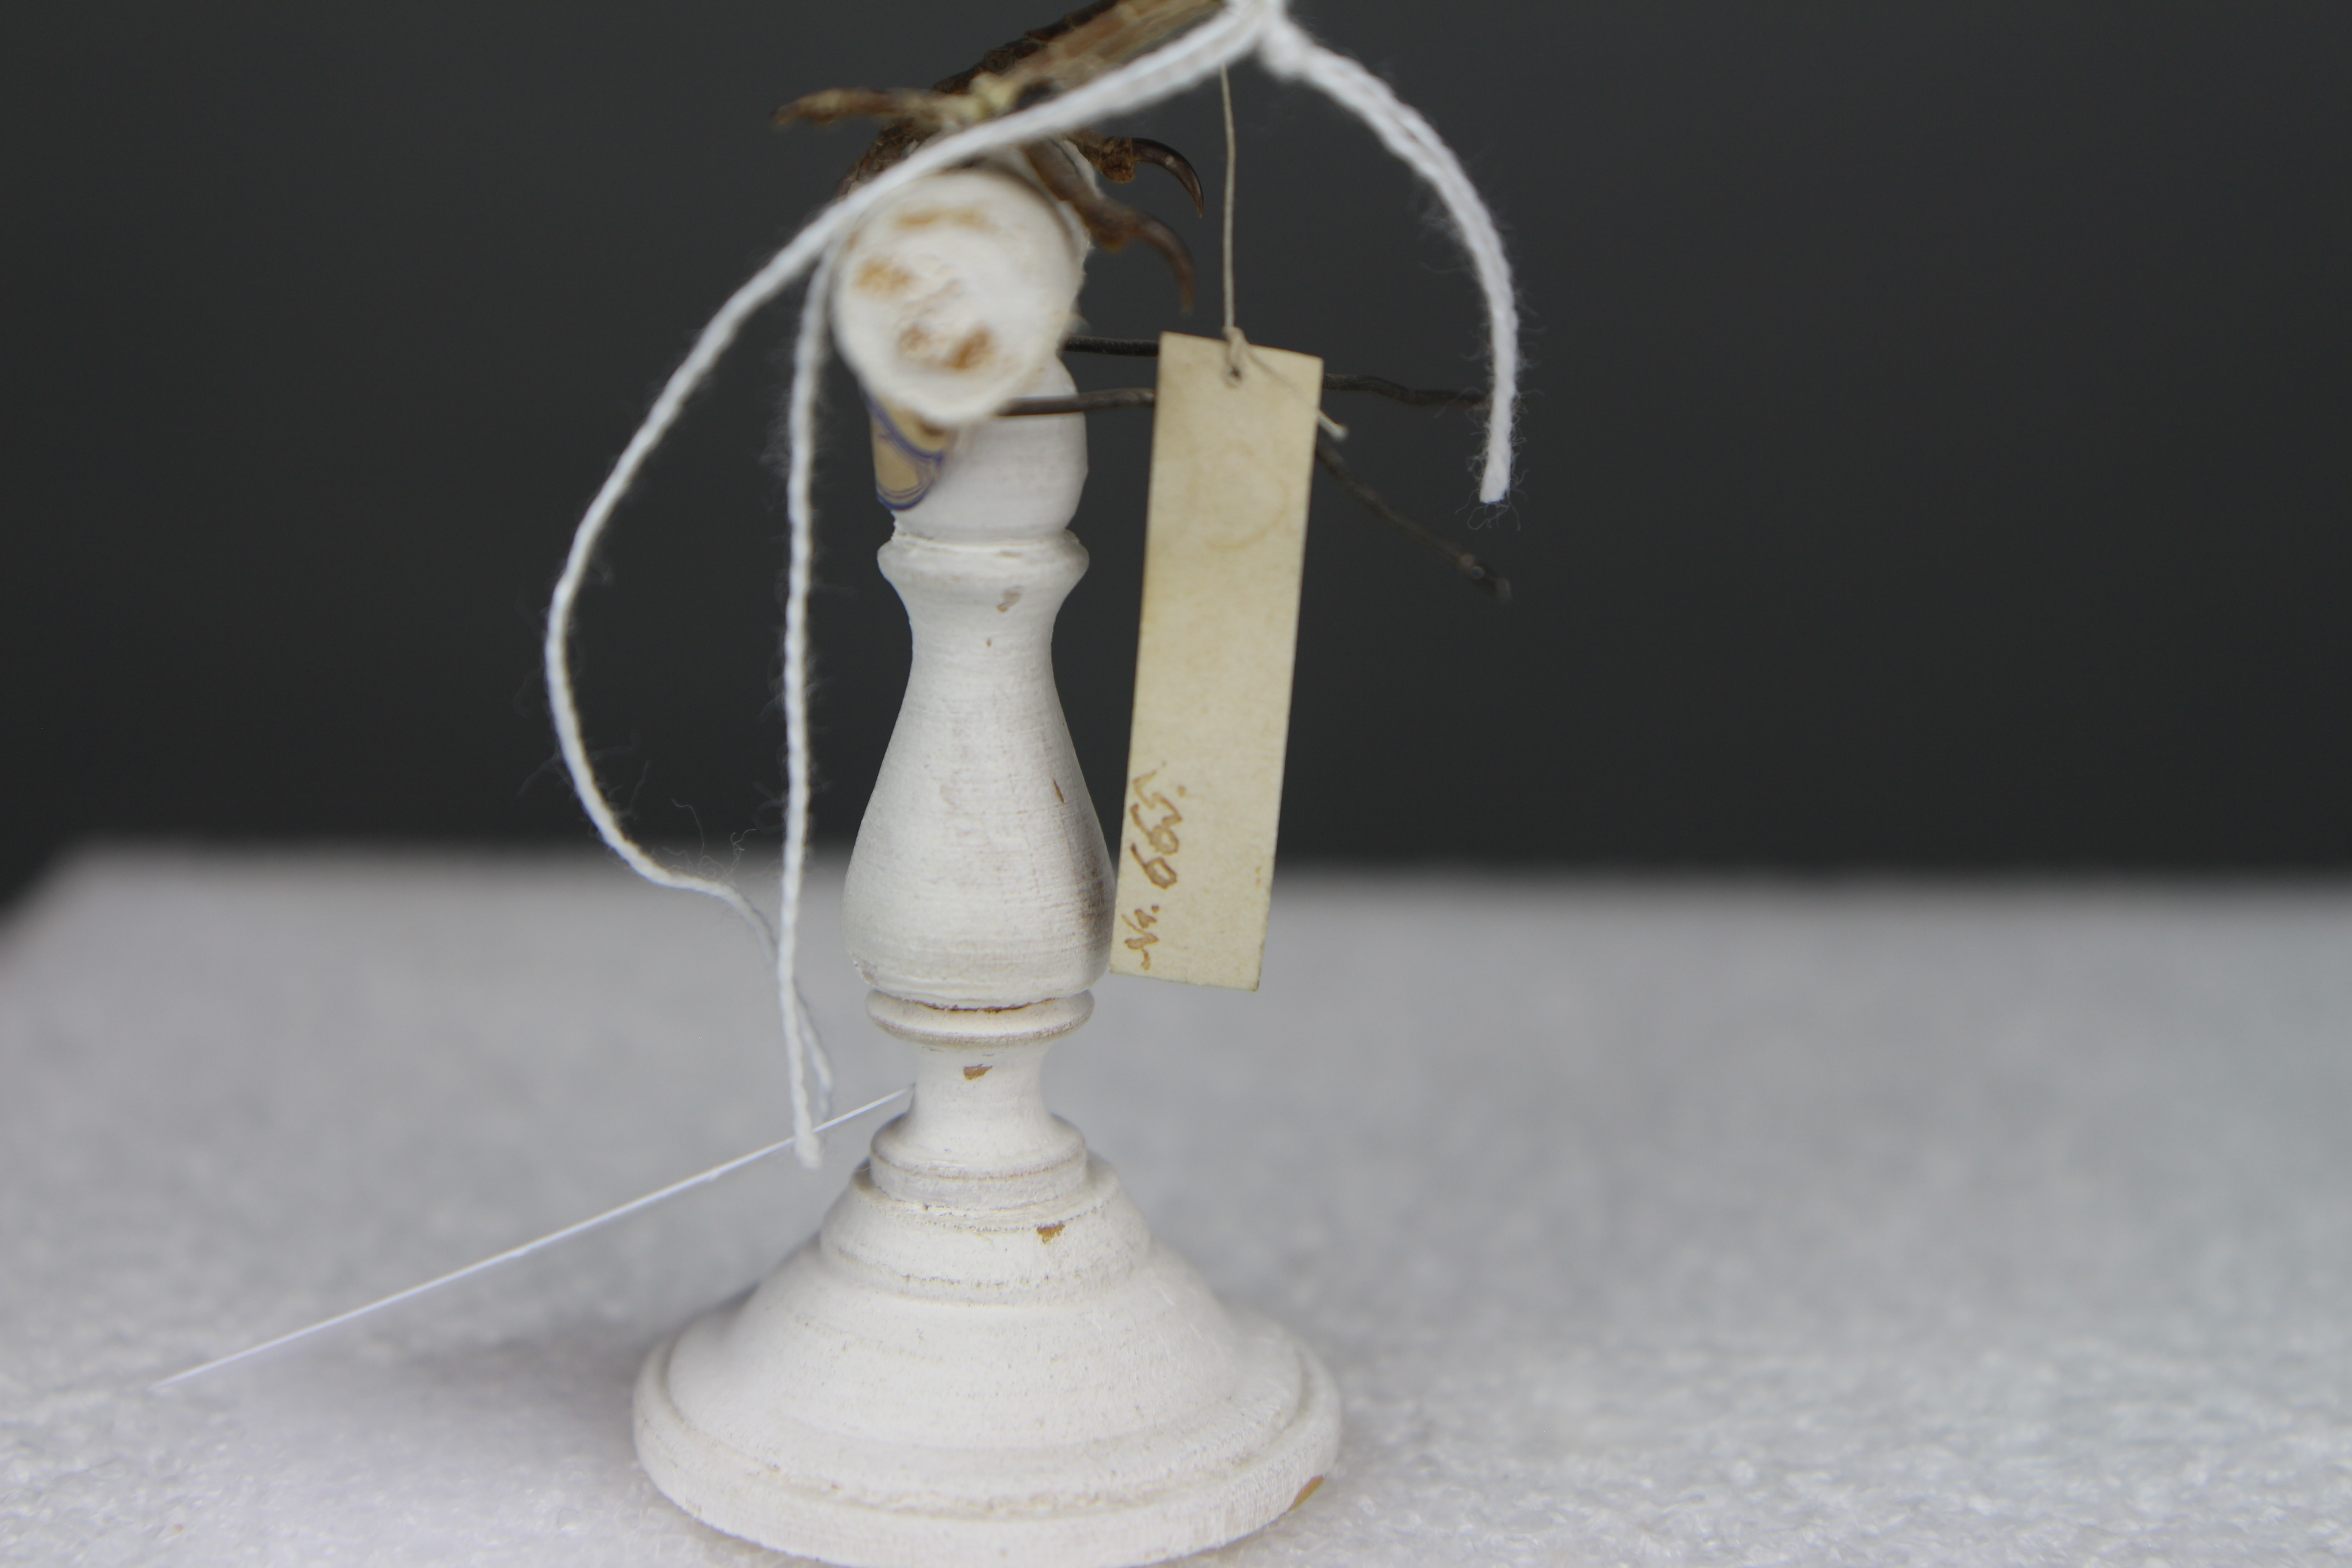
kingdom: Animalia
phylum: Chordata
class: Aves
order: Passeriformes
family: Laniidae
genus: Lanius
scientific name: Lanius nubicus
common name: Masked shrike
